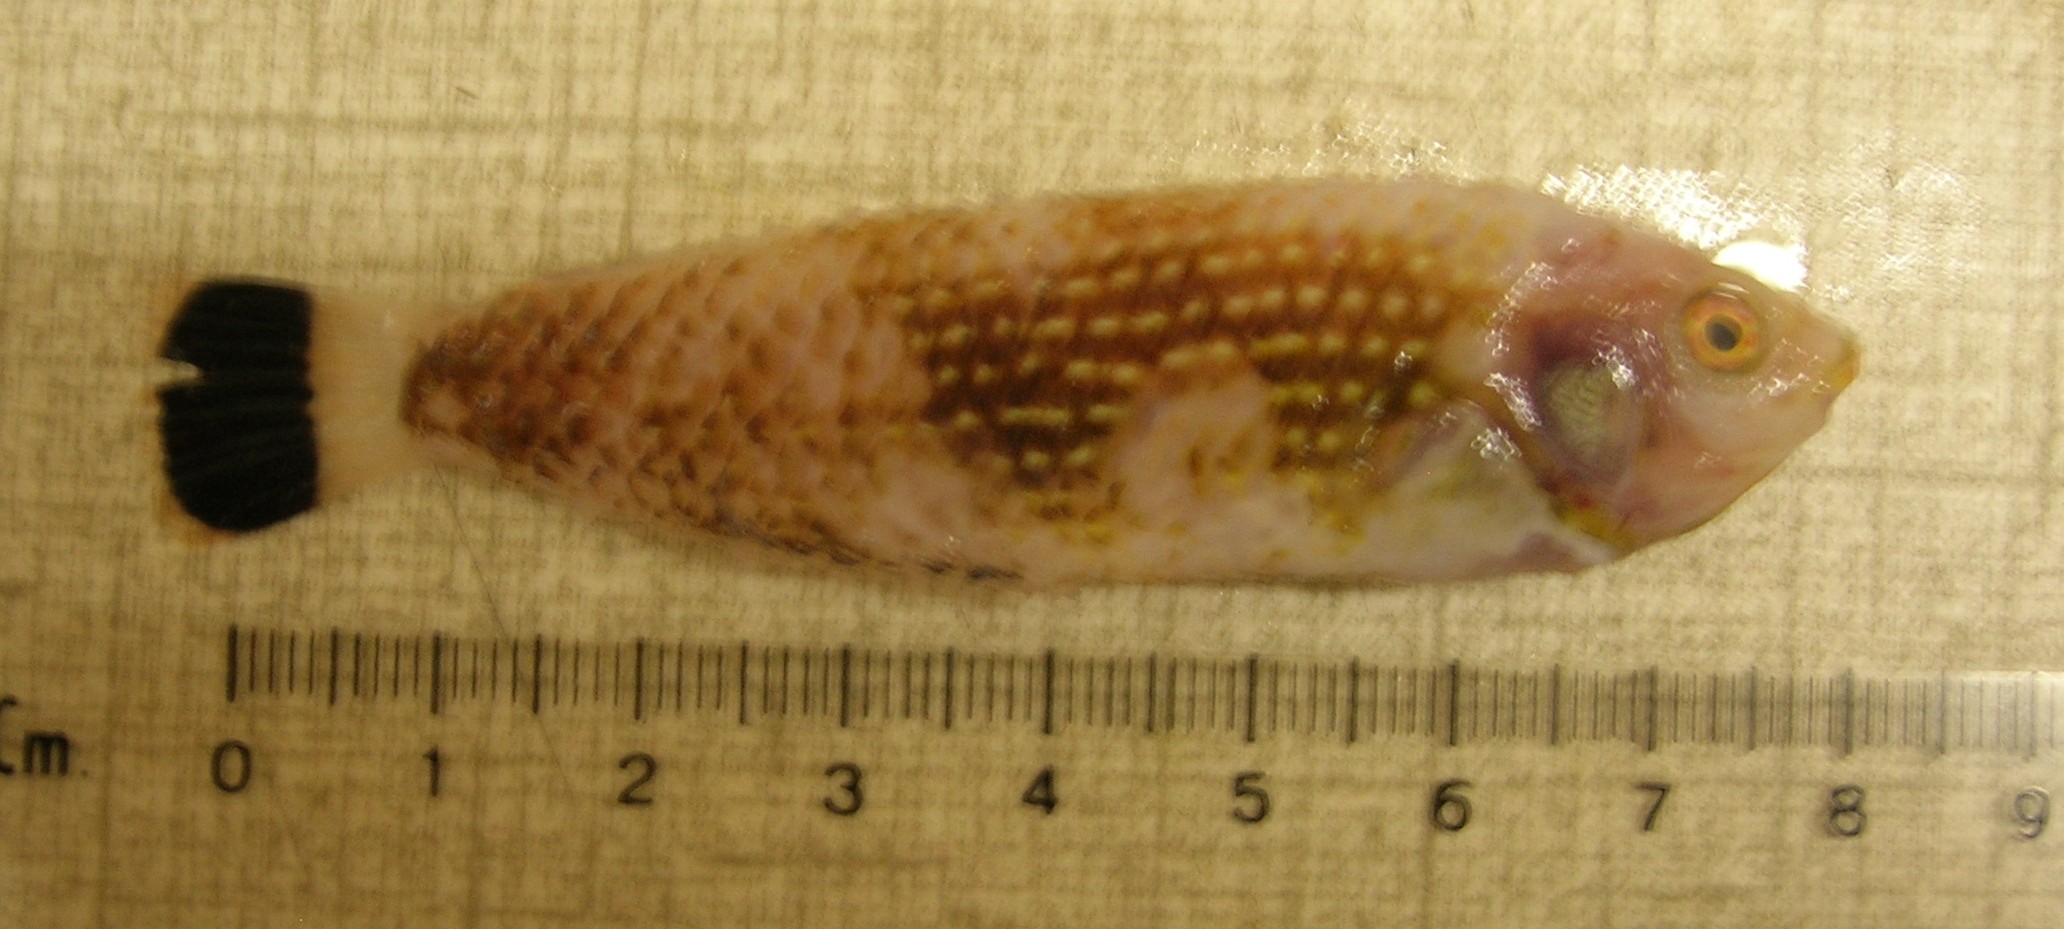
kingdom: Animalia
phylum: Chordata
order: Perciformes
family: Labridae
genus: Anampses
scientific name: Anampses lineatus
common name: Lined wrasse
